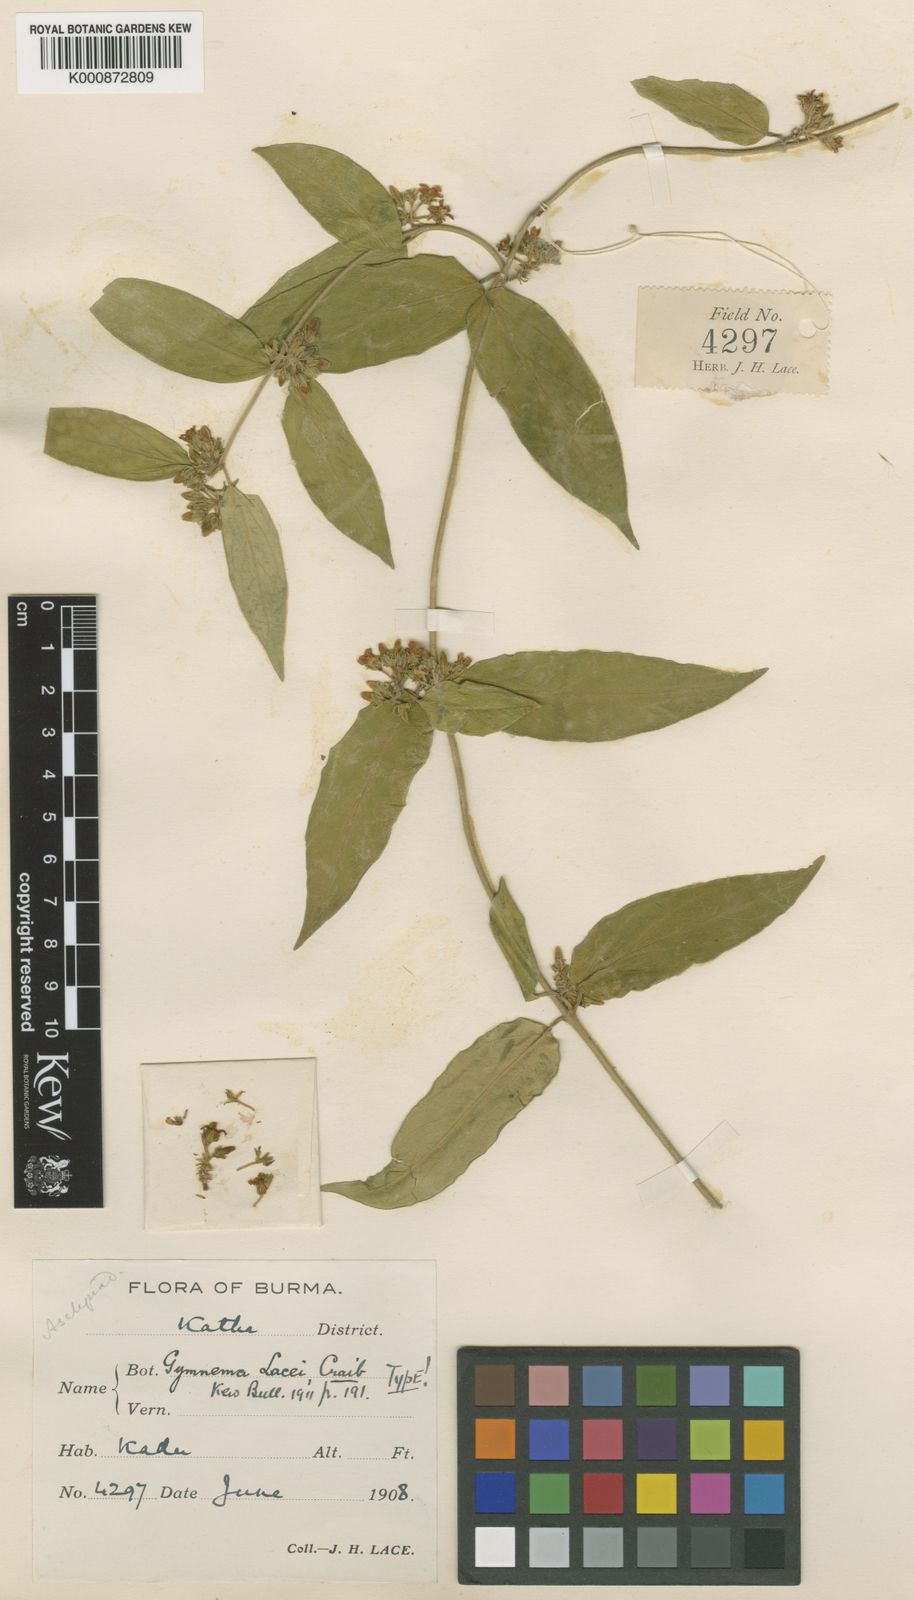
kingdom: Plantae
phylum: Tracheophyta
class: Magnoliopsida
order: Gentianales
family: Apocynaceae
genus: Gymnema
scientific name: Gymnema lacei
